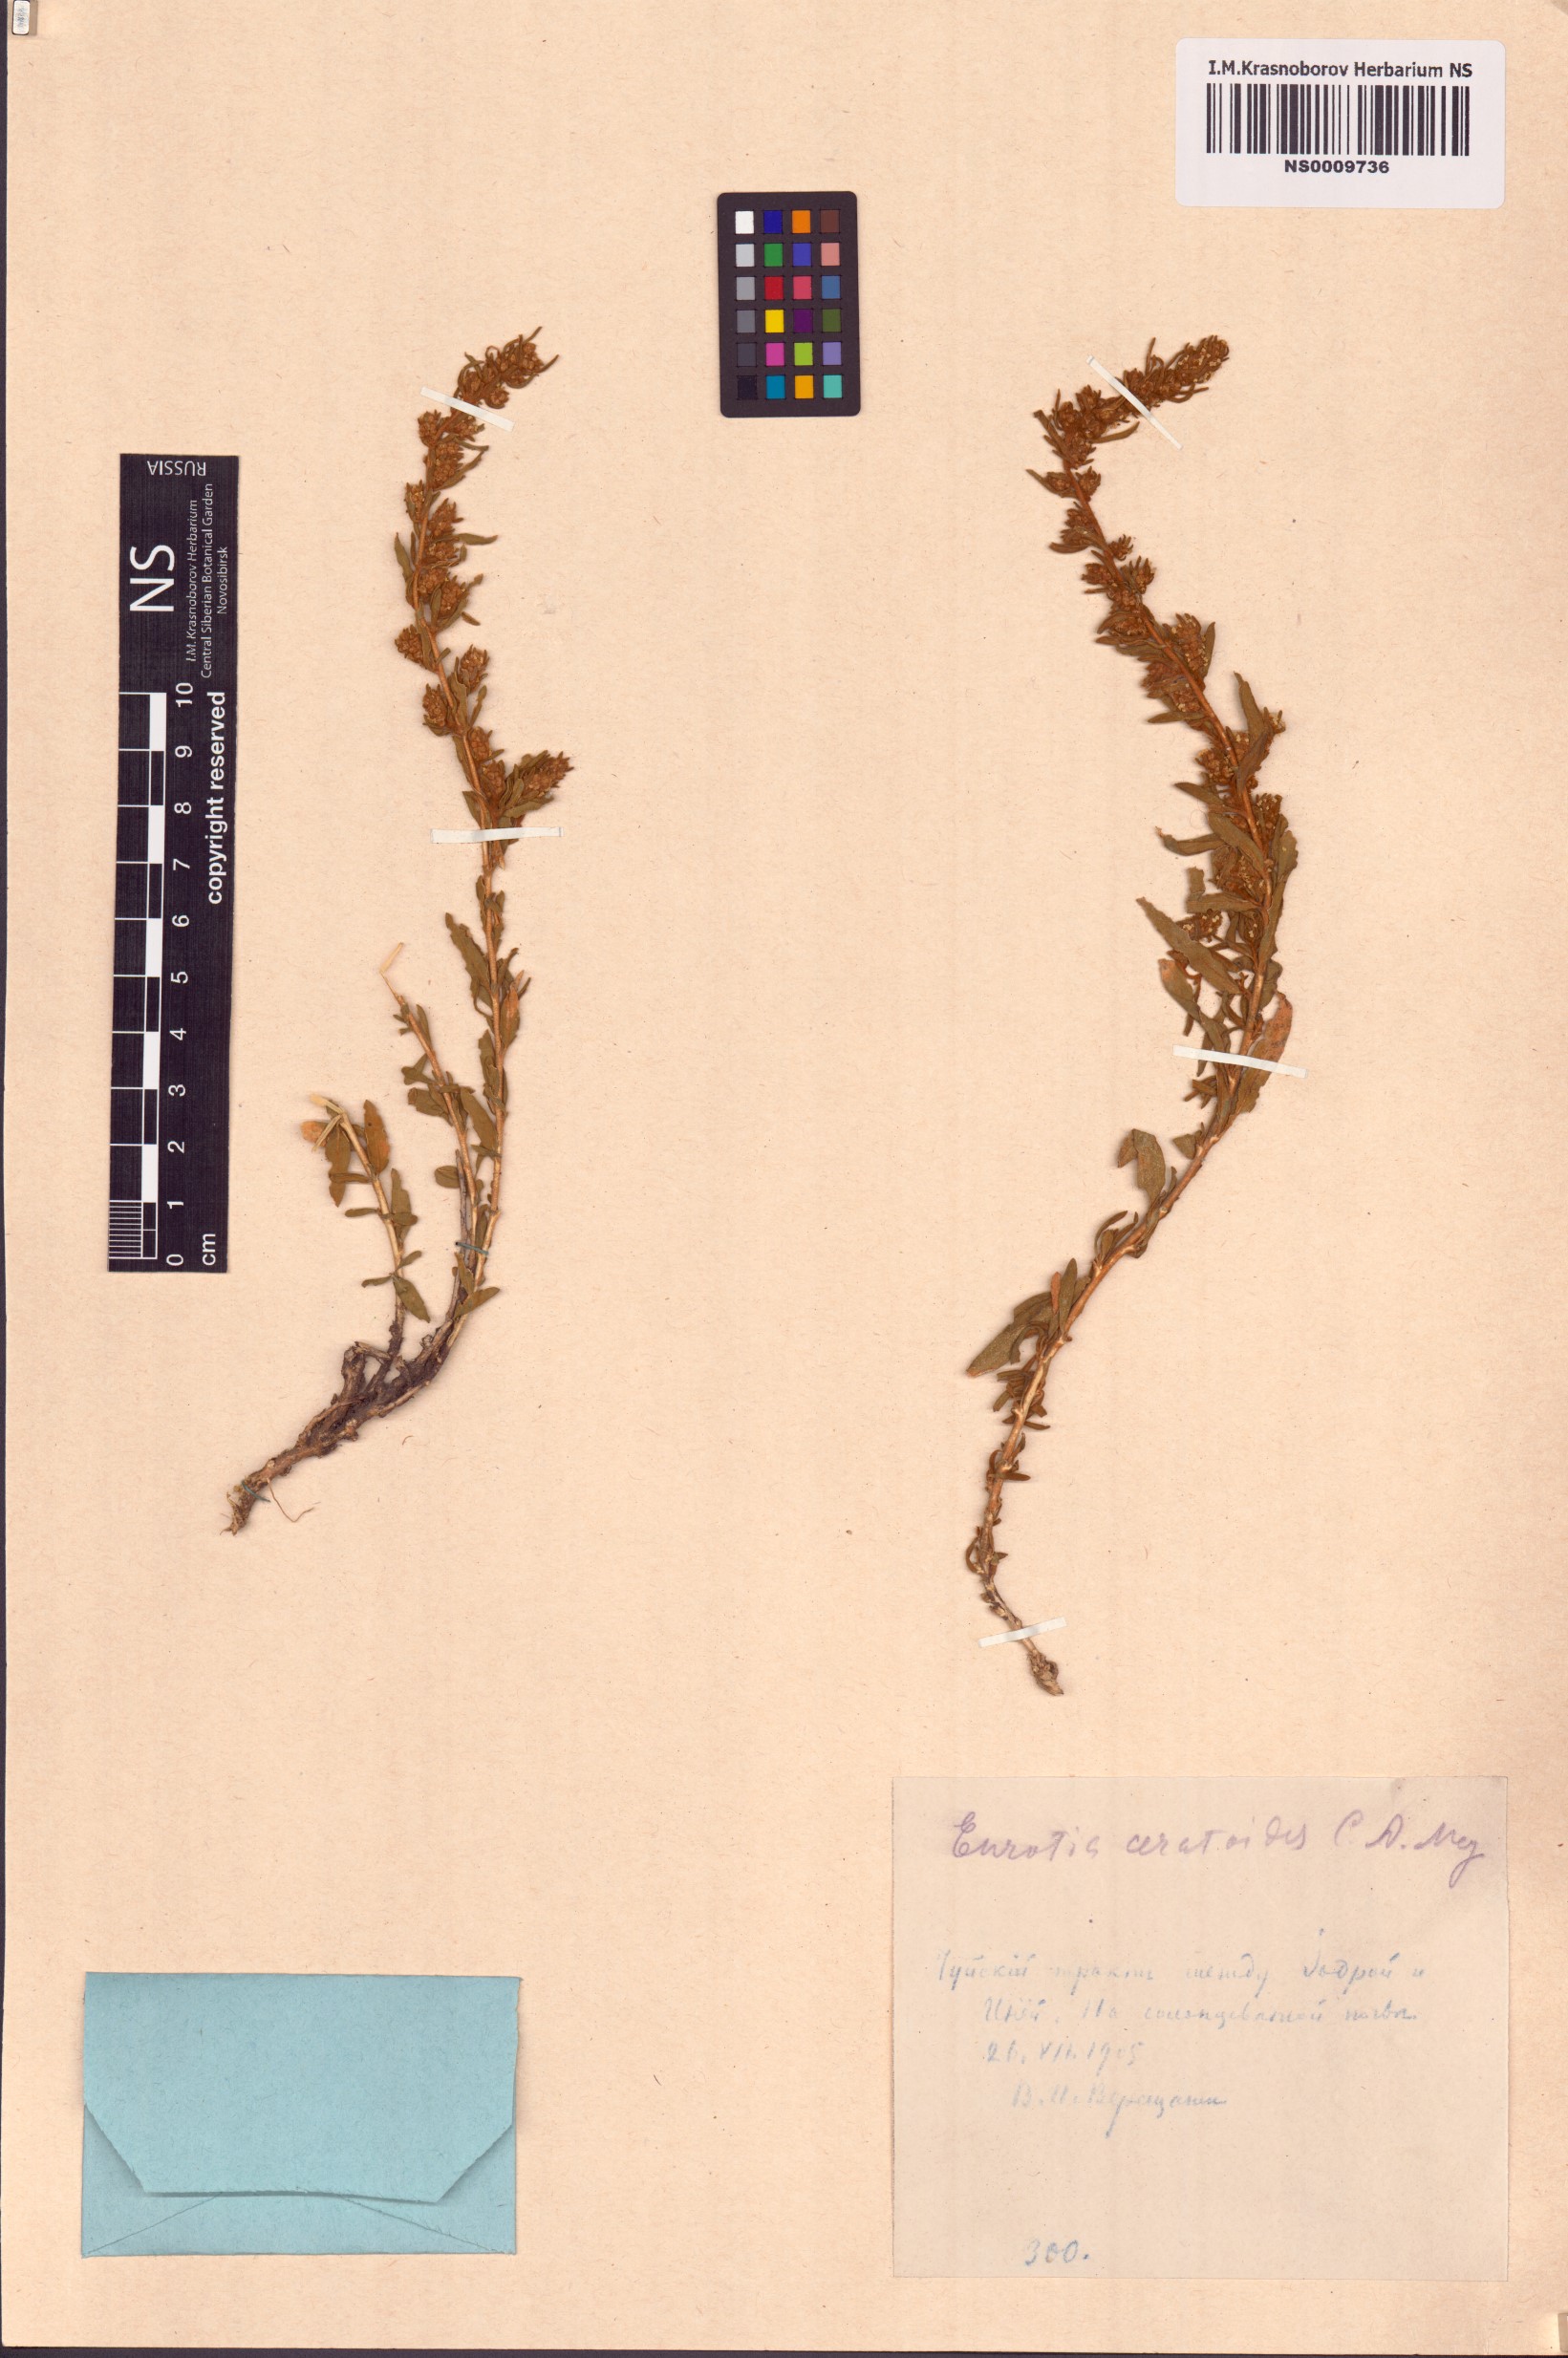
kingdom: Plantae
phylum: Tracheophyta
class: Magnoliopsida
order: Caryophyllales
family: Amaranthaceae
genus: Krascheninnikovia
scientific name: Krascheninnikovia ceratoides
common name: Pamirian winterfat
